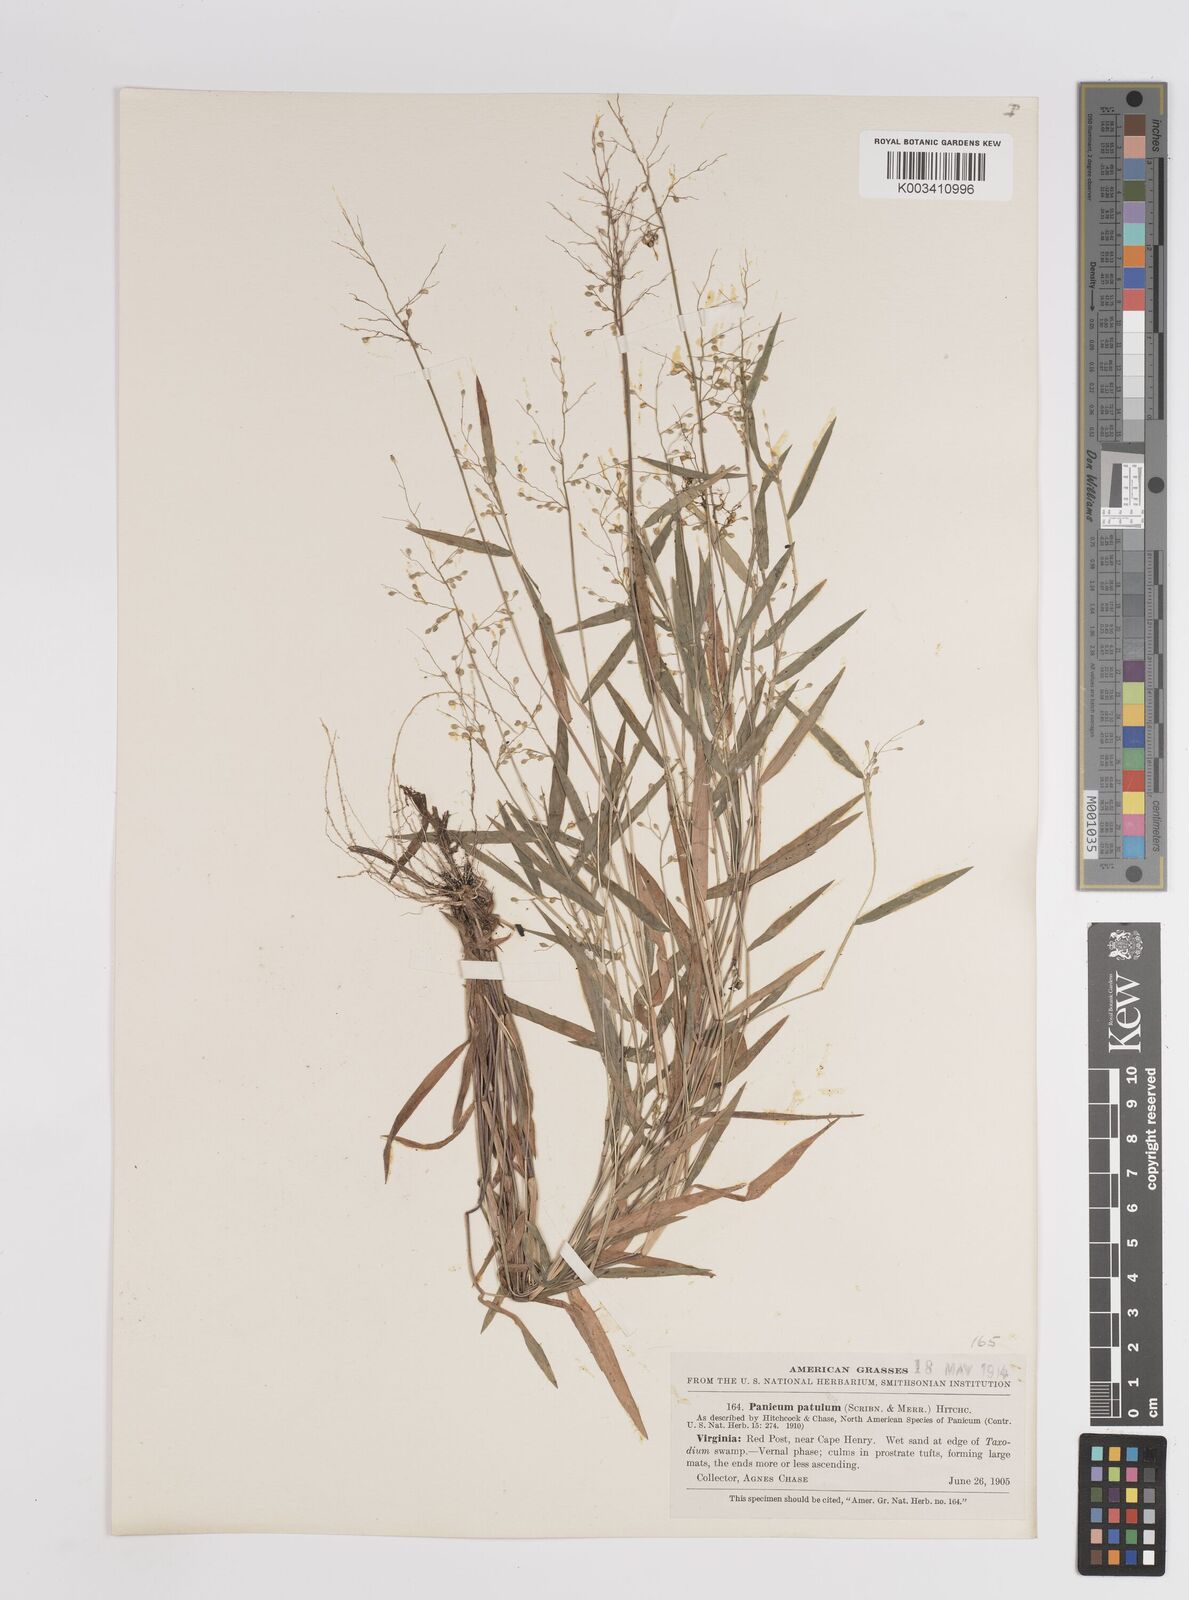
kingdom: Plantae
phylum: Tracheophyta
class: Liliopsida
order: Poales
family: Poaceae
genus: Dichanthelium
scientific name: Dichanthelium patulum
